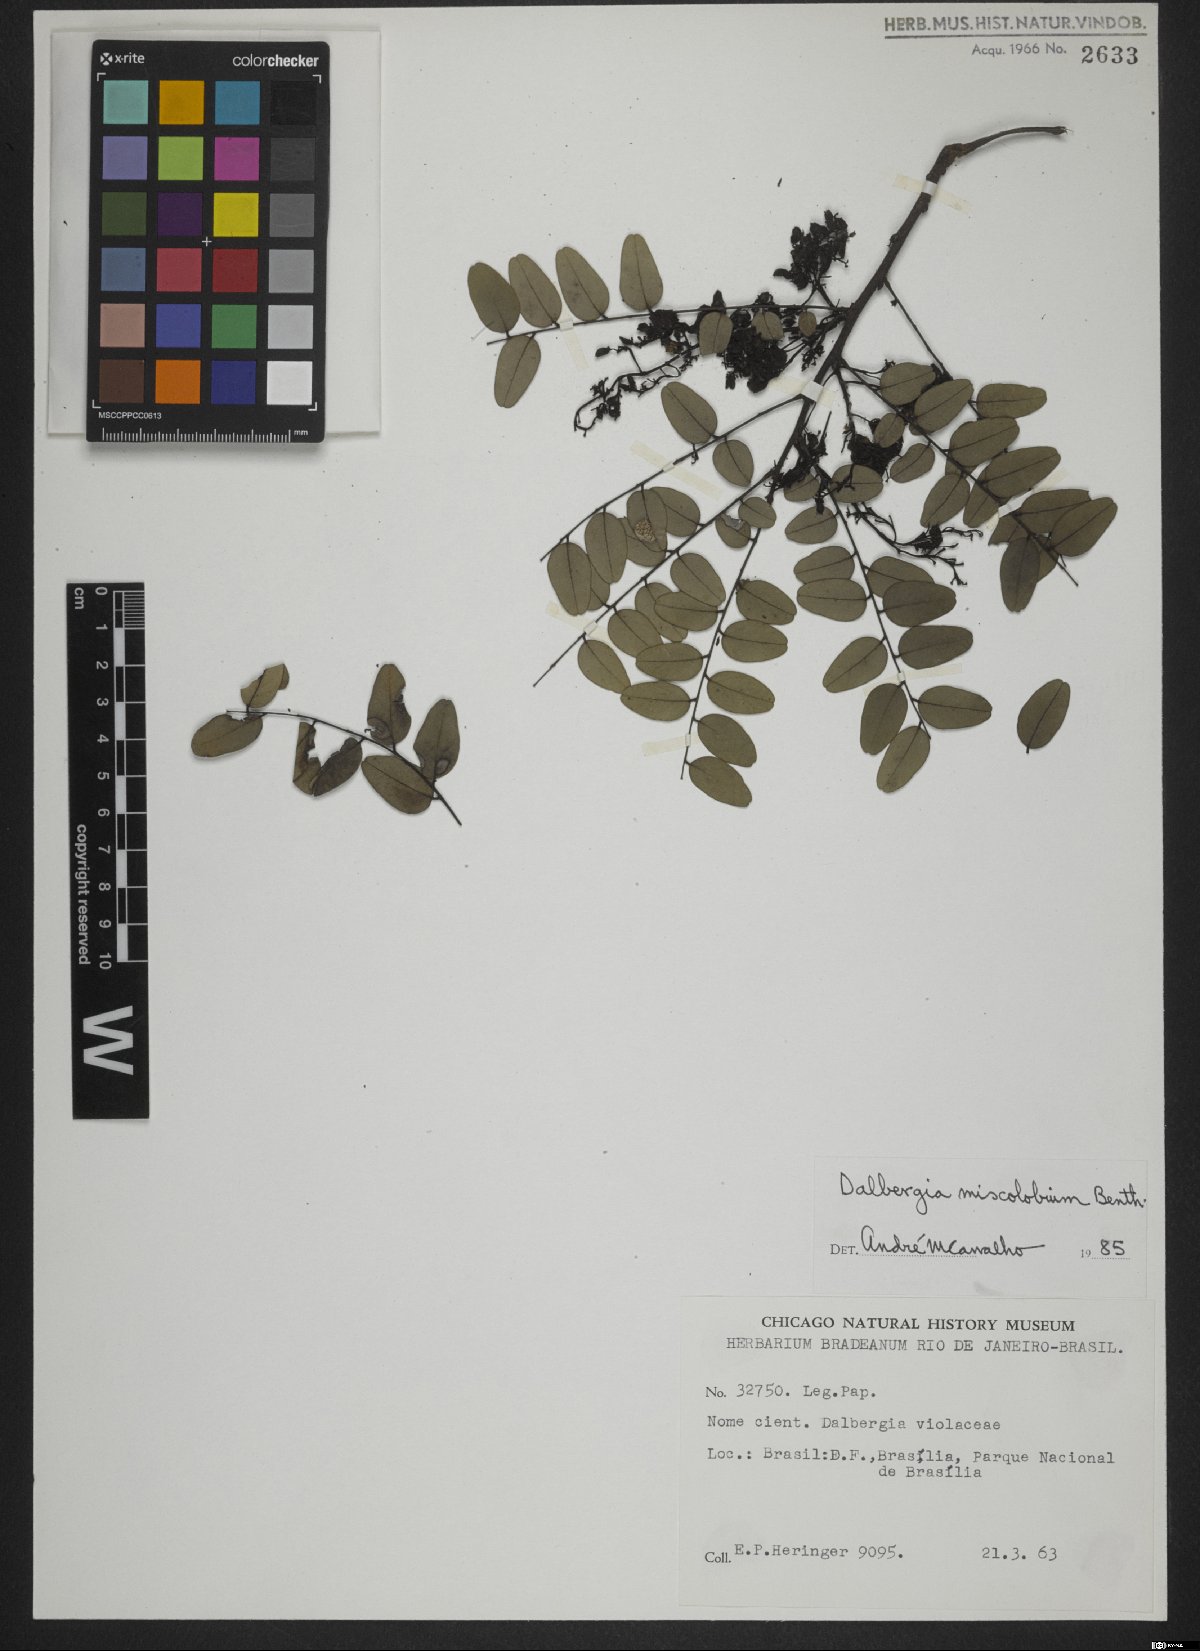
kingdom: Plantae
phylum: Tracheophyta
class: Magnoliopsida
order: Fabales
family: Fabaceae
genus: Dalbergia
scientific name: Dalbergia miscolobium
